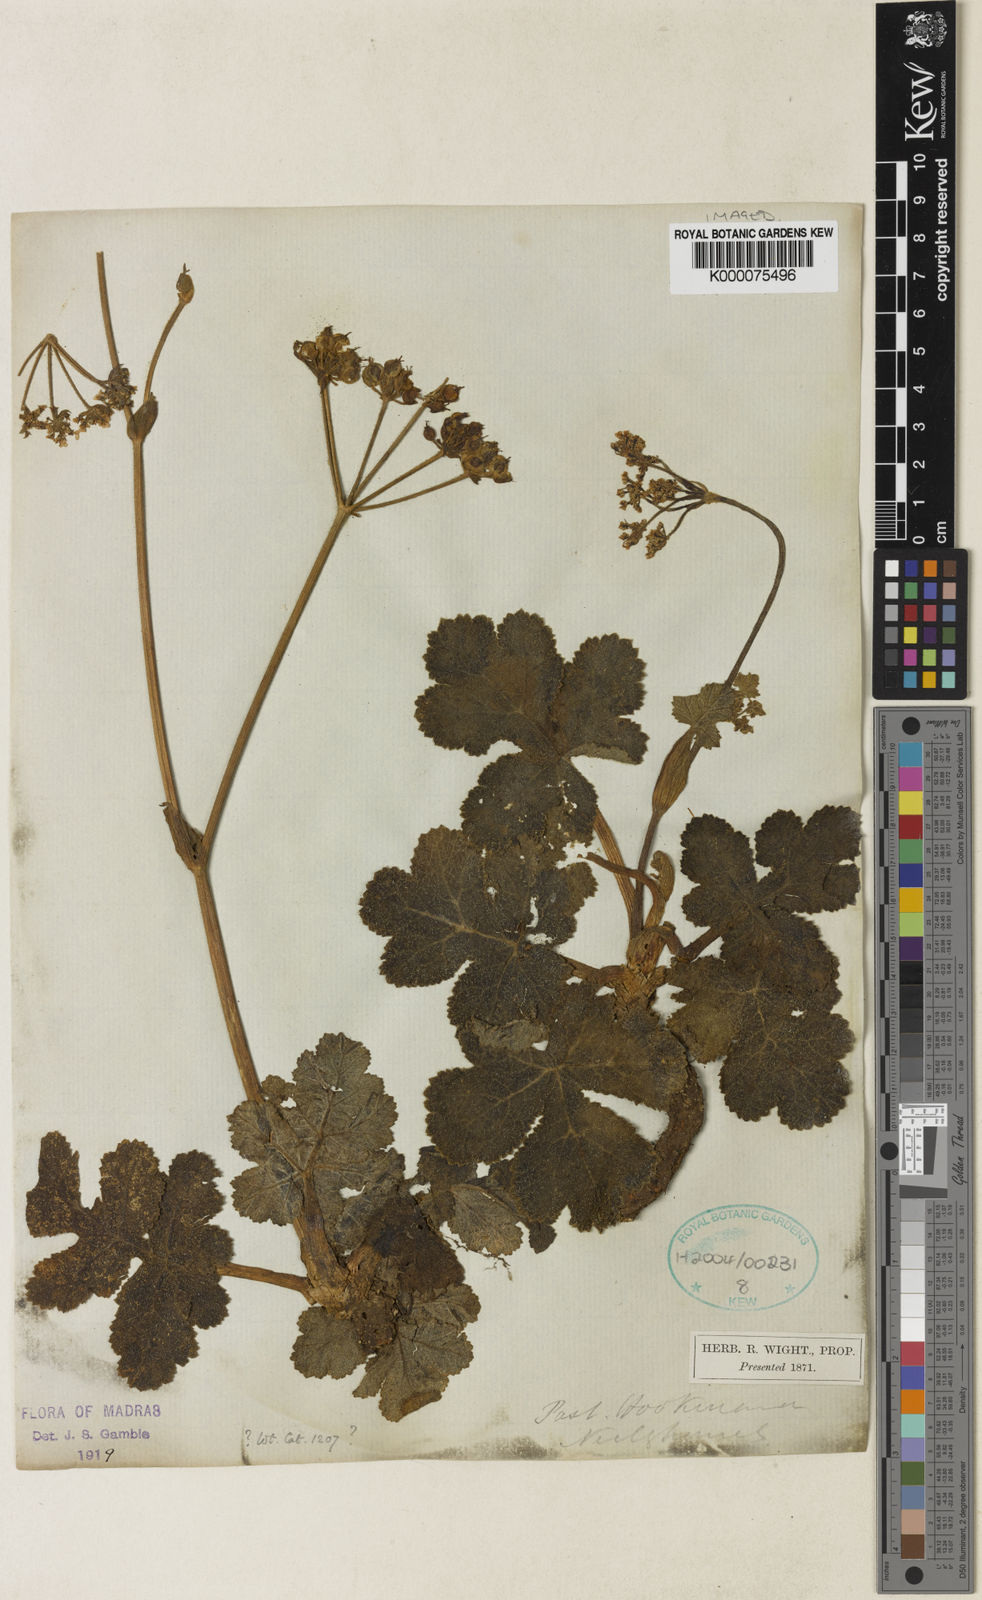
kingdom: Plantae
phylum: Tracheophyta
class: Magnoliopsida
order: Apiales
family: Apiaceae
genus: Tetrataenium
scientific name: Tetrataenium hookerianum
